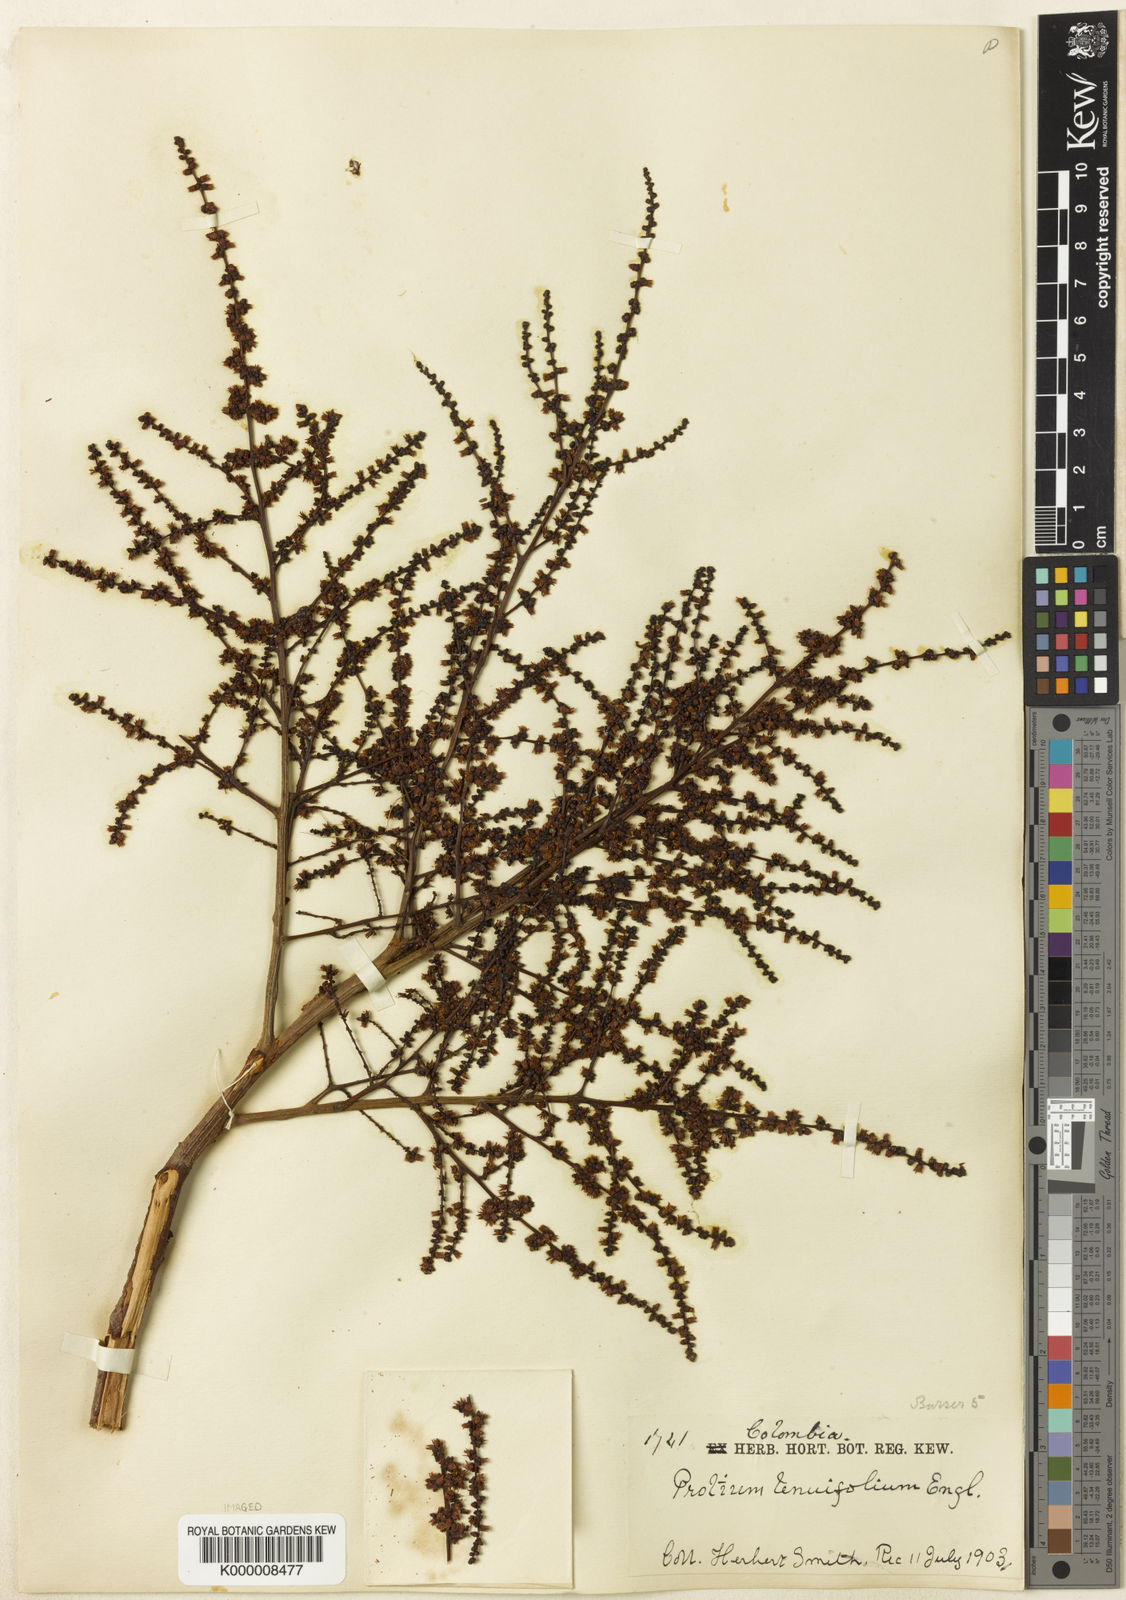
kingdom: Plantae
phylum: Tracheophyta
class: Magnoliopsida
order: Sapindales
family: Burseraceae
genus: Protium
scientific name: Protium herbertii
